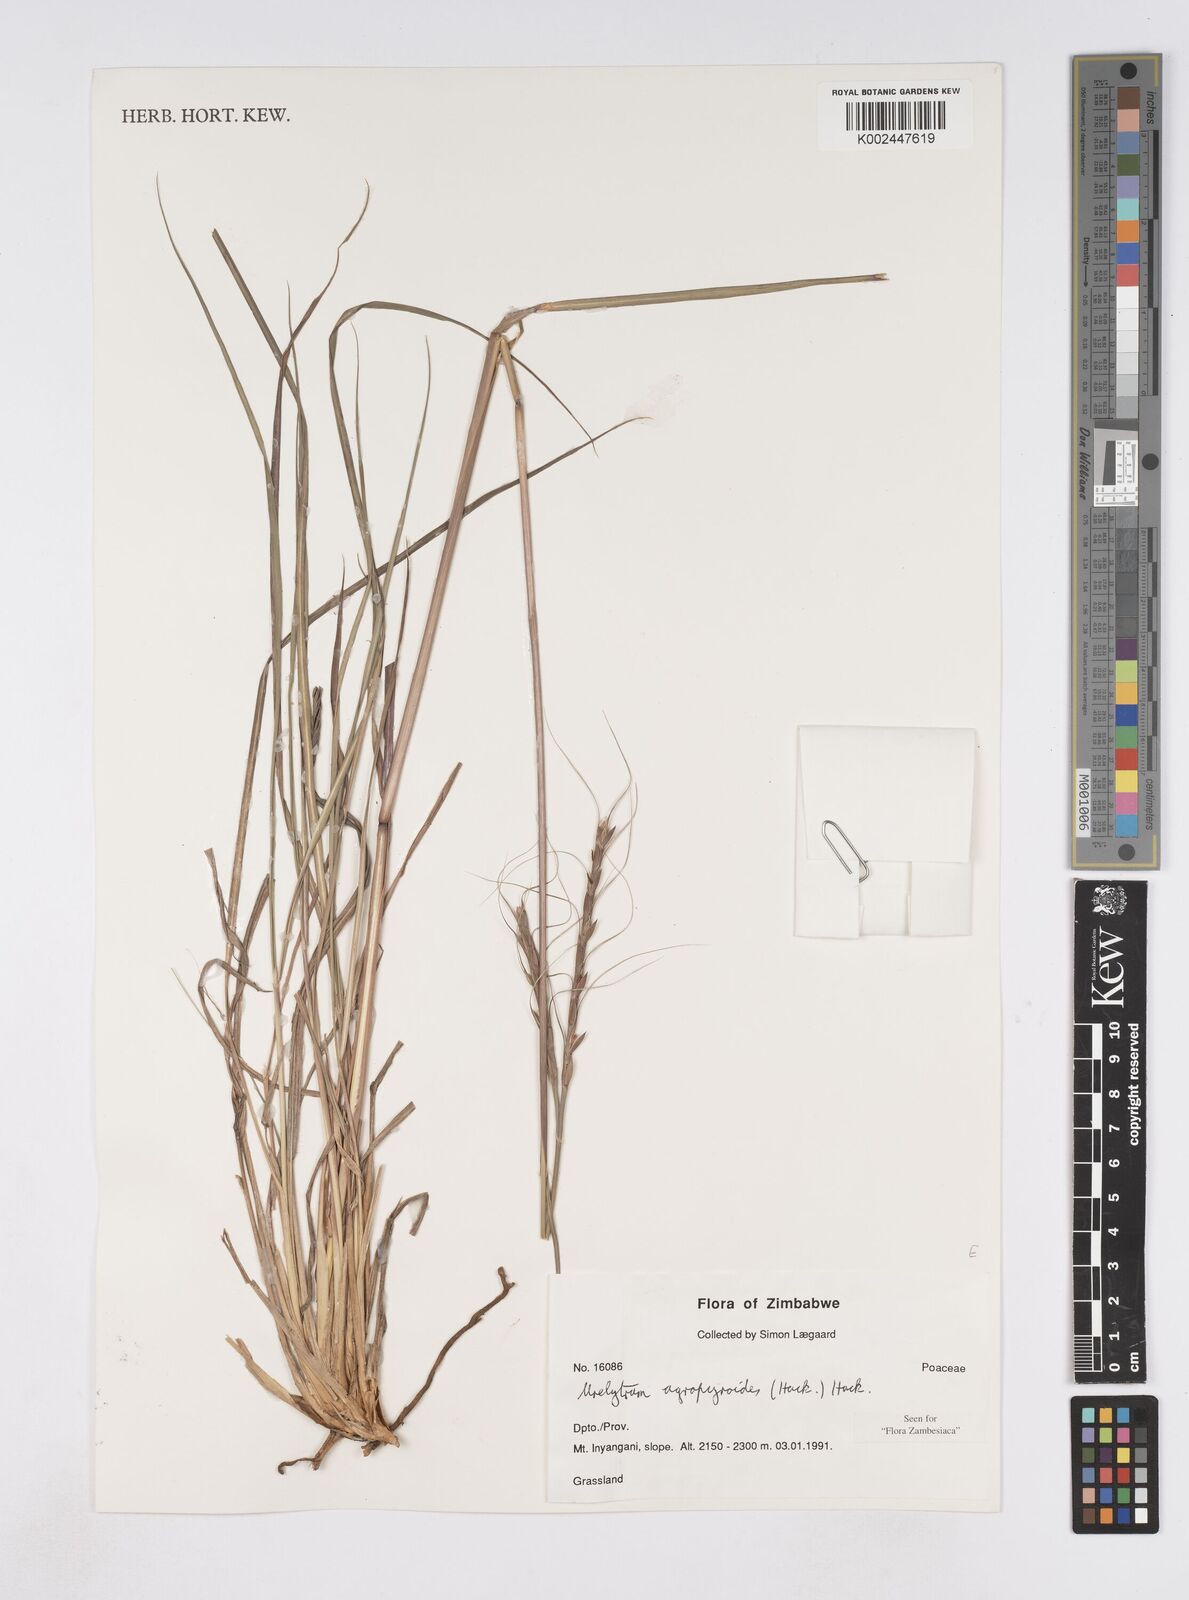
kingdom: Plantae
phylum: Tracheophyta
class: Liliopsida
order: Poales
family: Poaceae
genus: Urelytrum
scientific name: Urelytrum agropyroides
